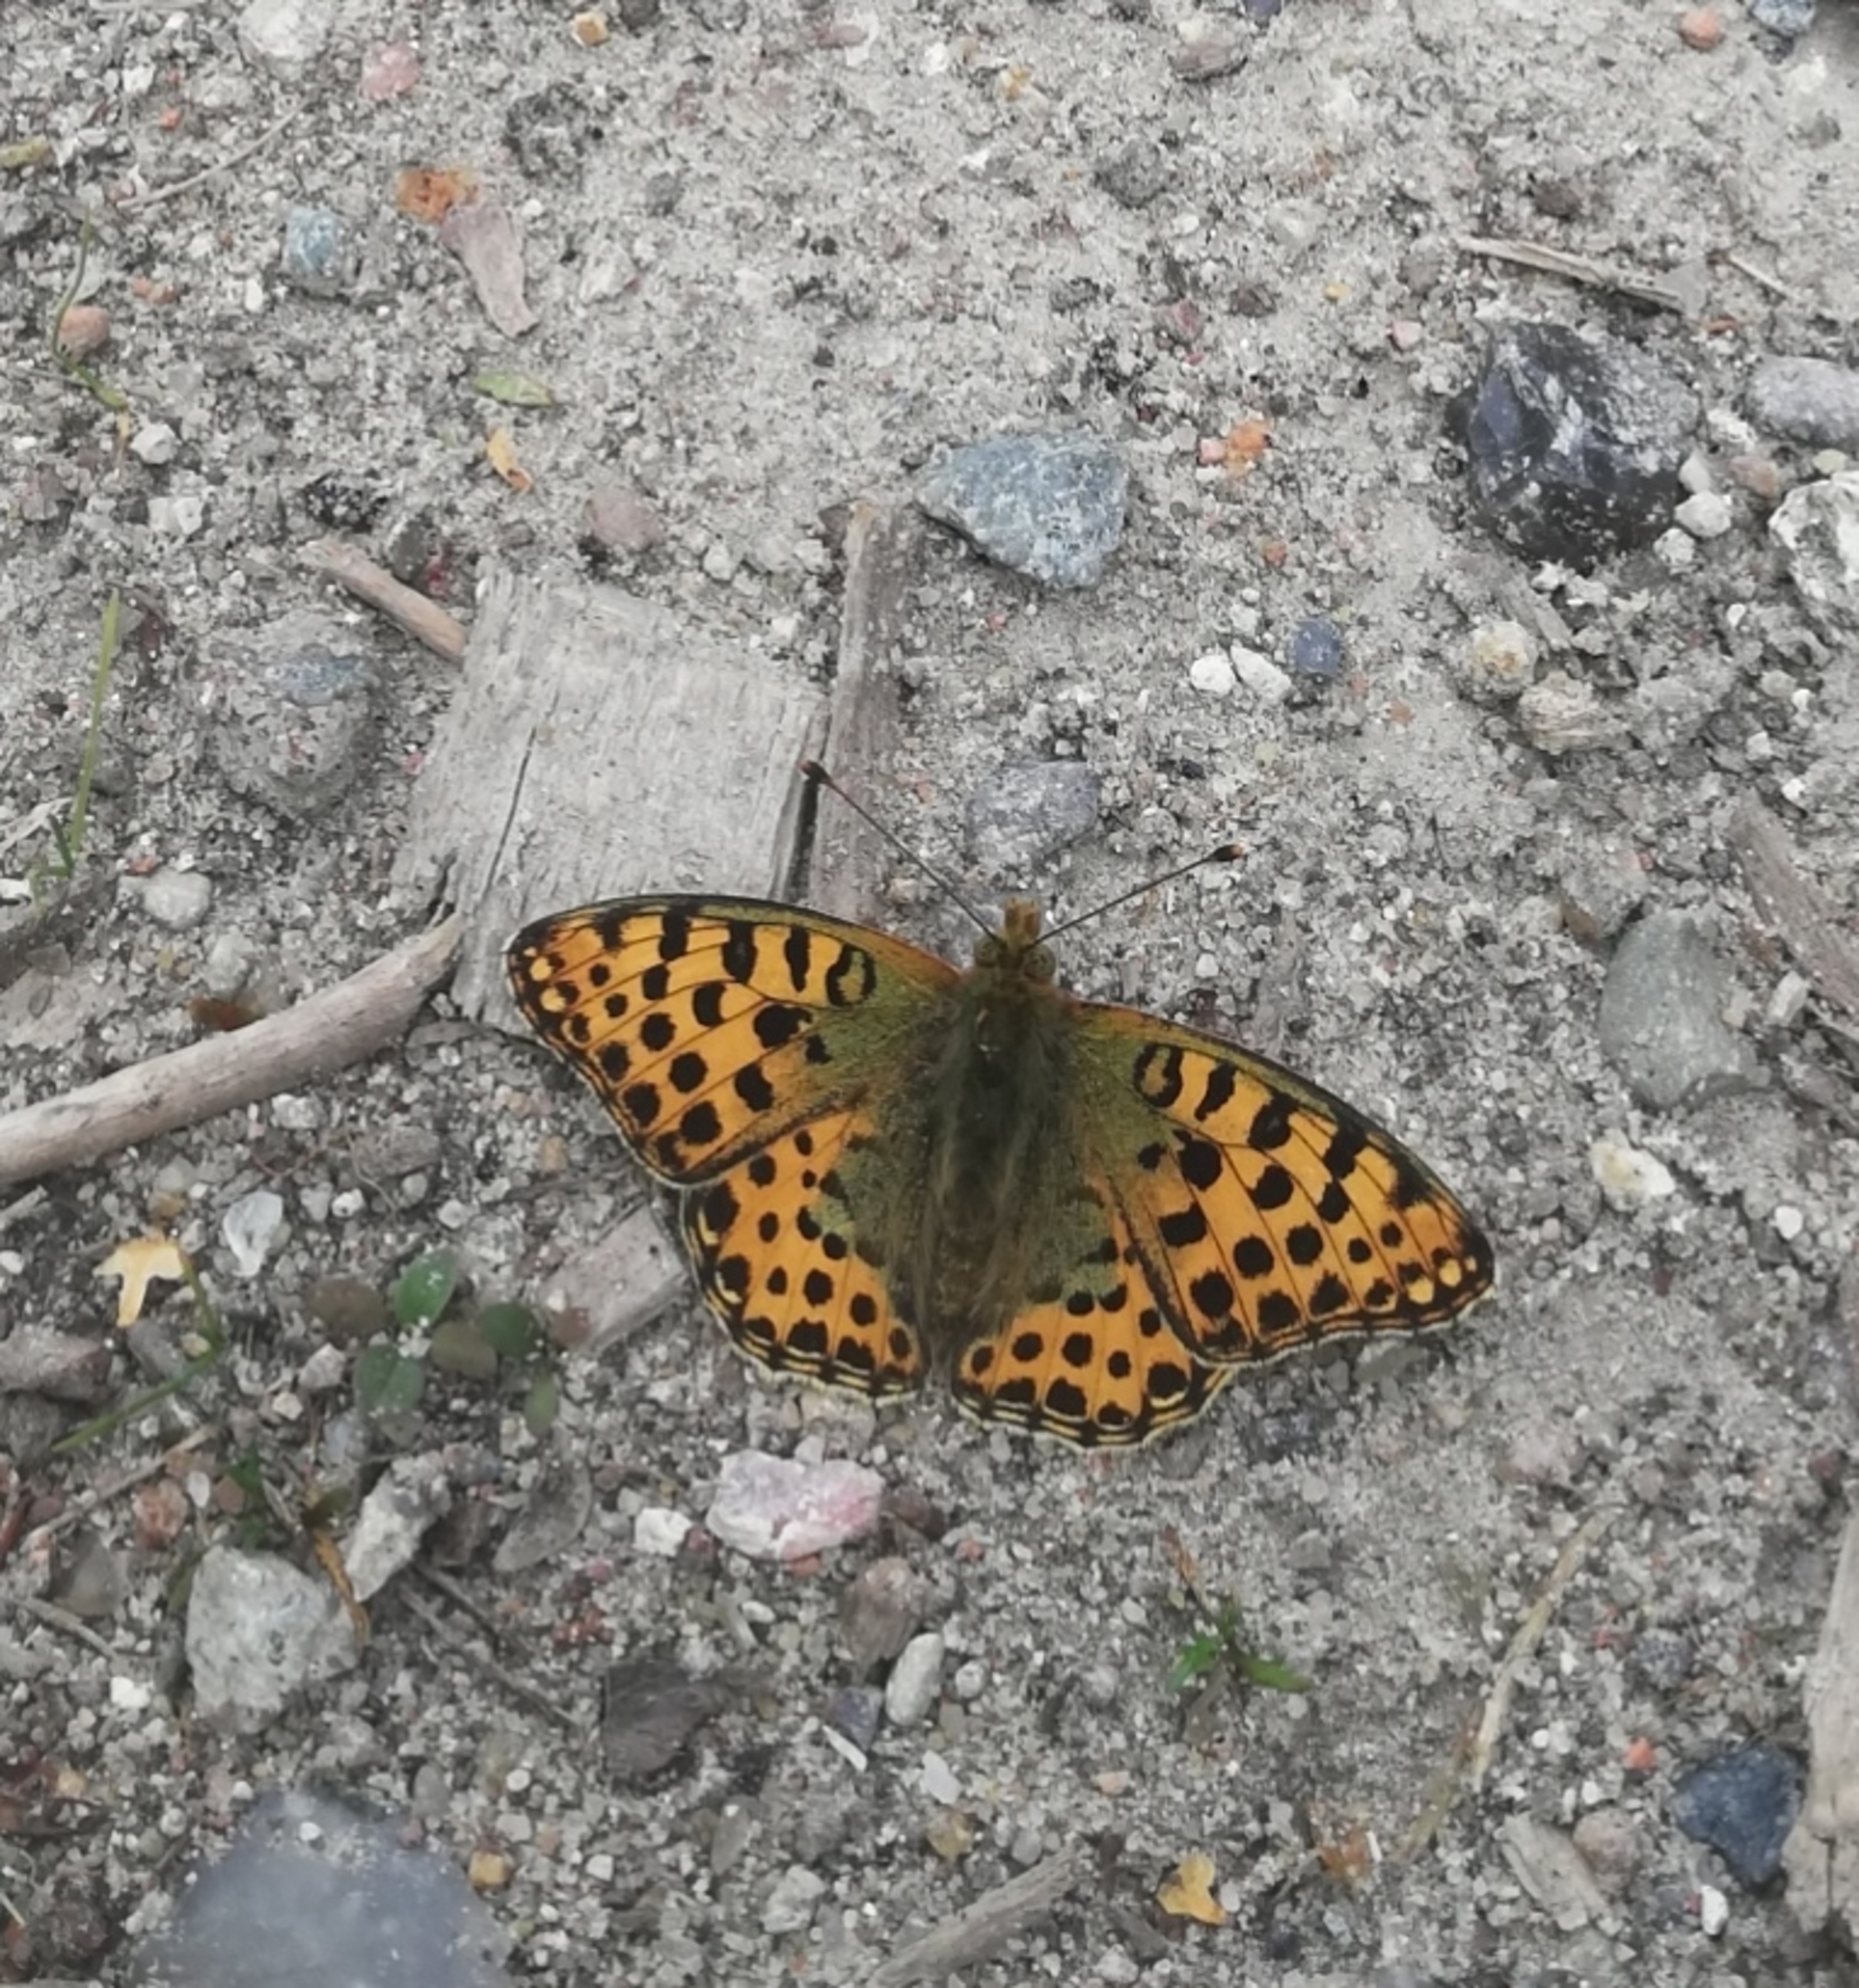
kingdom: Animalia
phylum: Arthropoda
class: Insecta
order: Lepidoptera
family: Nymphalidae
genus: Issoria
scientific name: Issoria lathonia
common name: Storplettet perlemorsommerfugl
